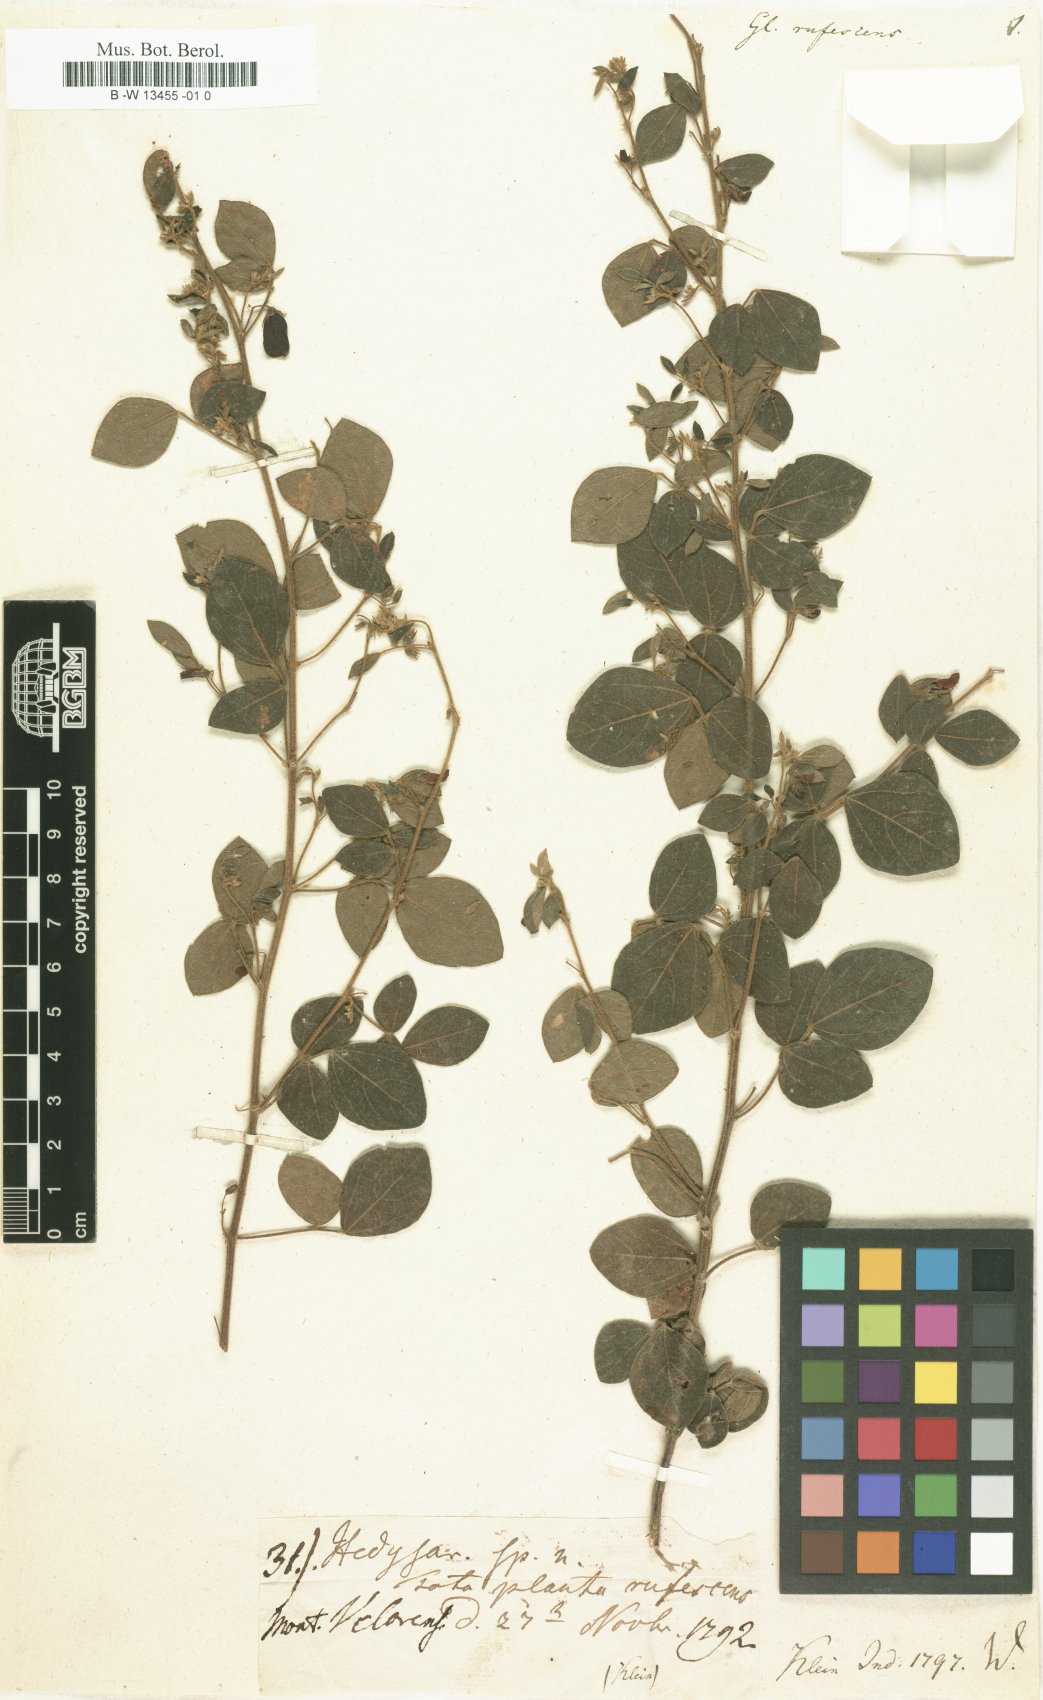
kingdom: Plantae
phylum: Tracheophyta
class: Magnoliopsida
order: Fabales
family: Fabaceae
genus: Rhynchosia
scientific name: Rhynchosia rufescens
